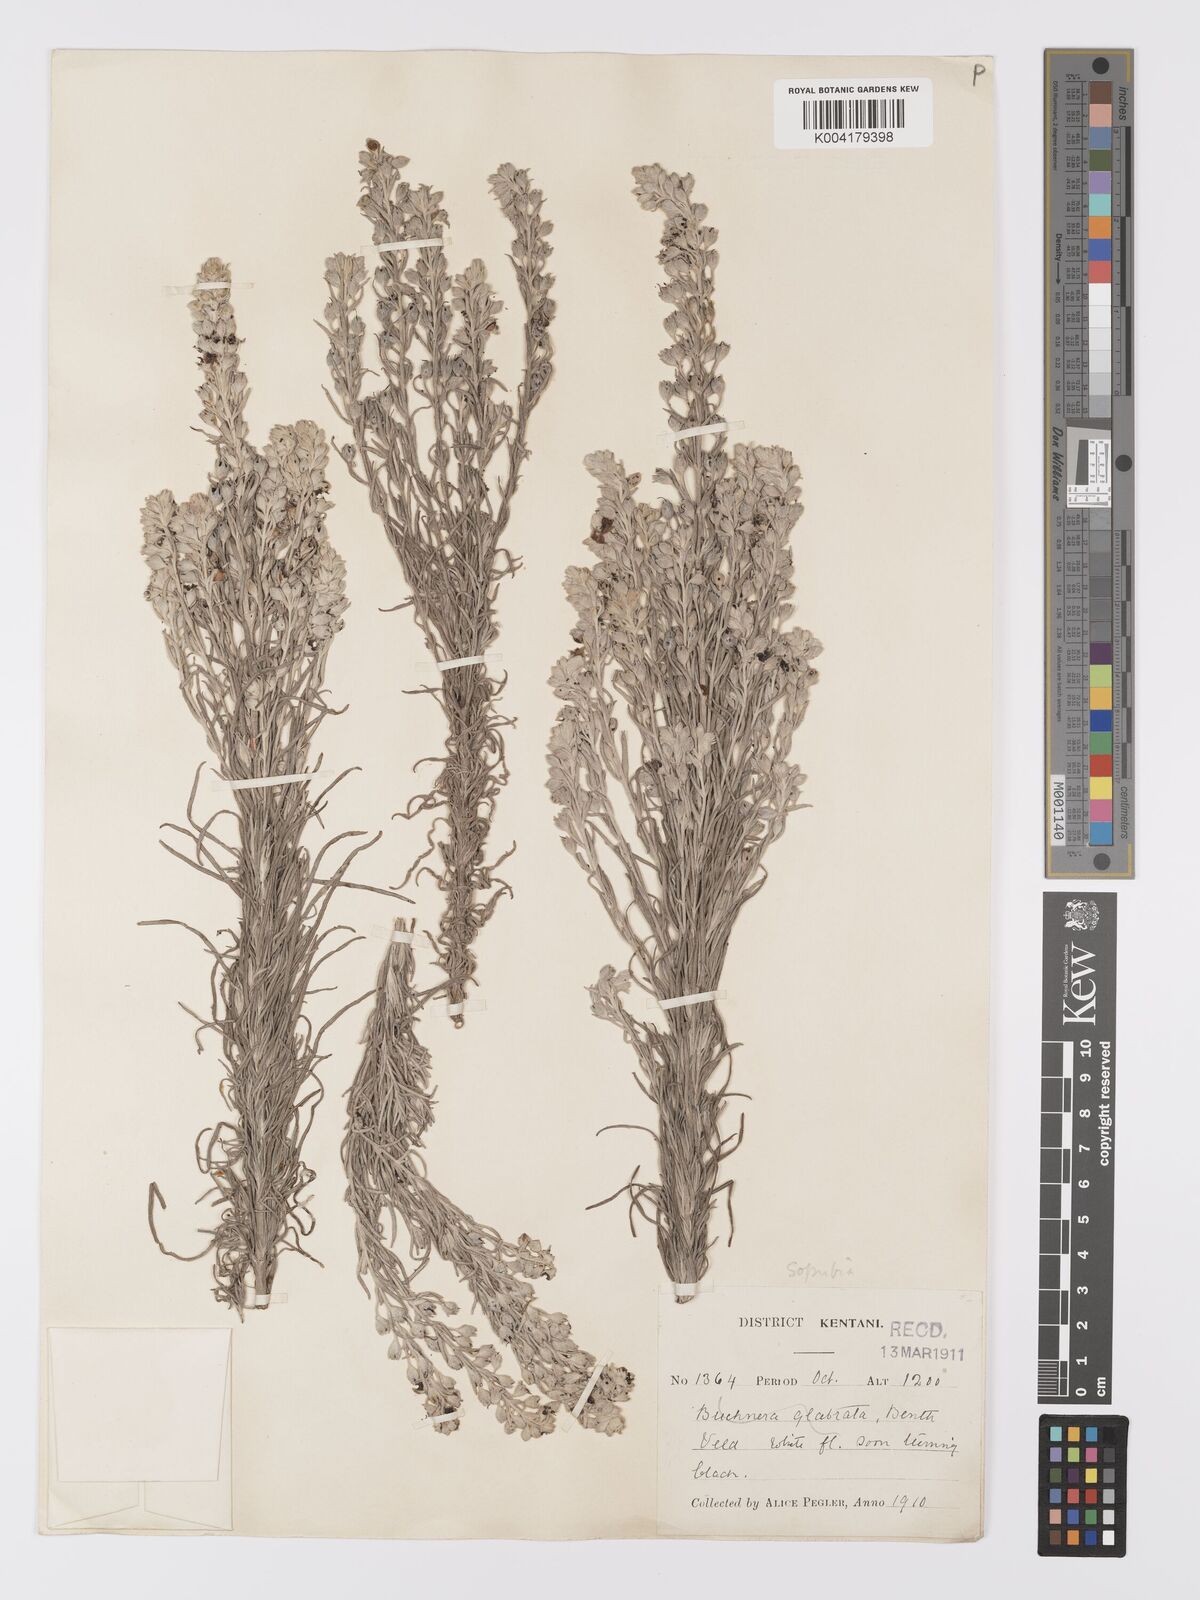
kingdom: Plantae
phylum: Tracheophyta
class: Magnoliopsida
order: Lamiales
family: Orobanchaceae
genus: Sopubia
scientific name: Sopubia cana
